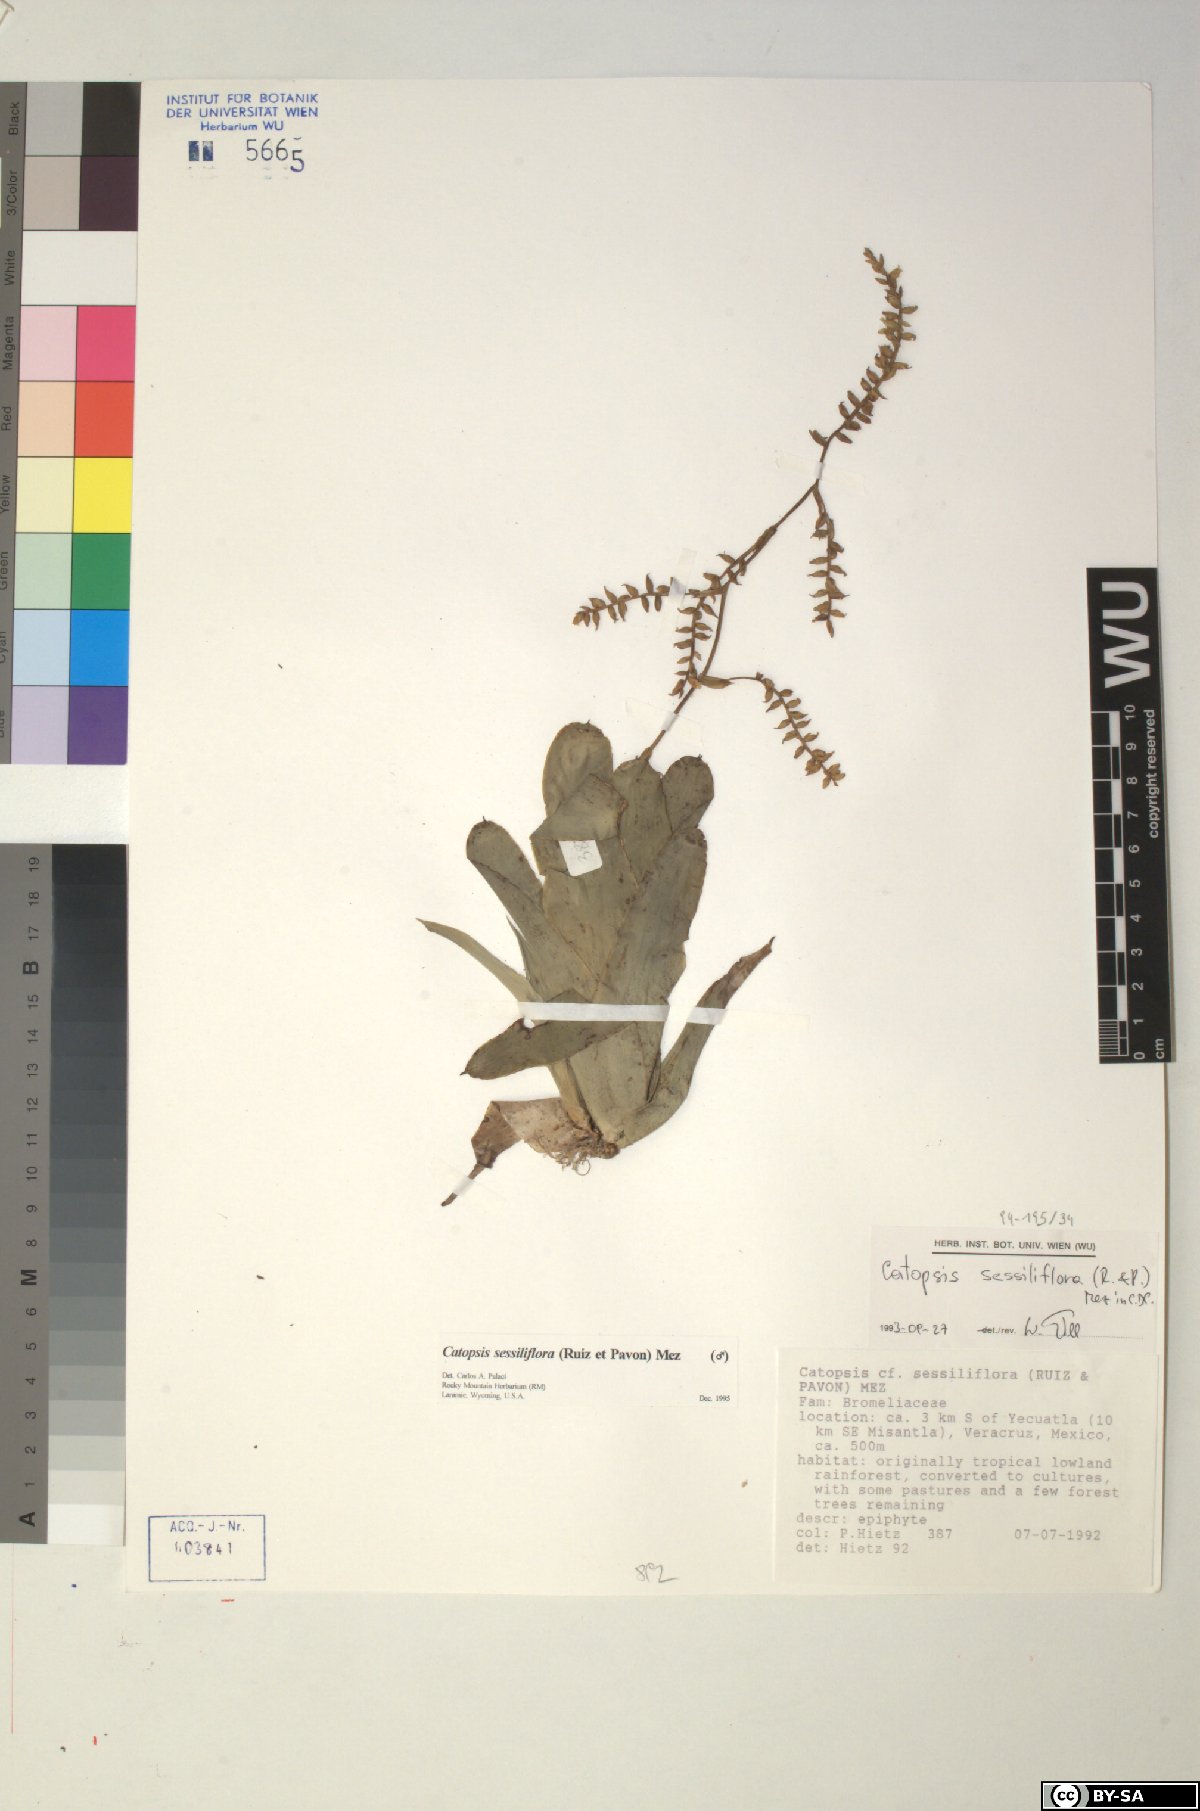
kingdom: Plantae
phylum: Tracheophyta
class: Liliopsida
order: Poales
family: Bromeliaceae
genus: Catopsis
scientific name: Catopsis sessiliflora
